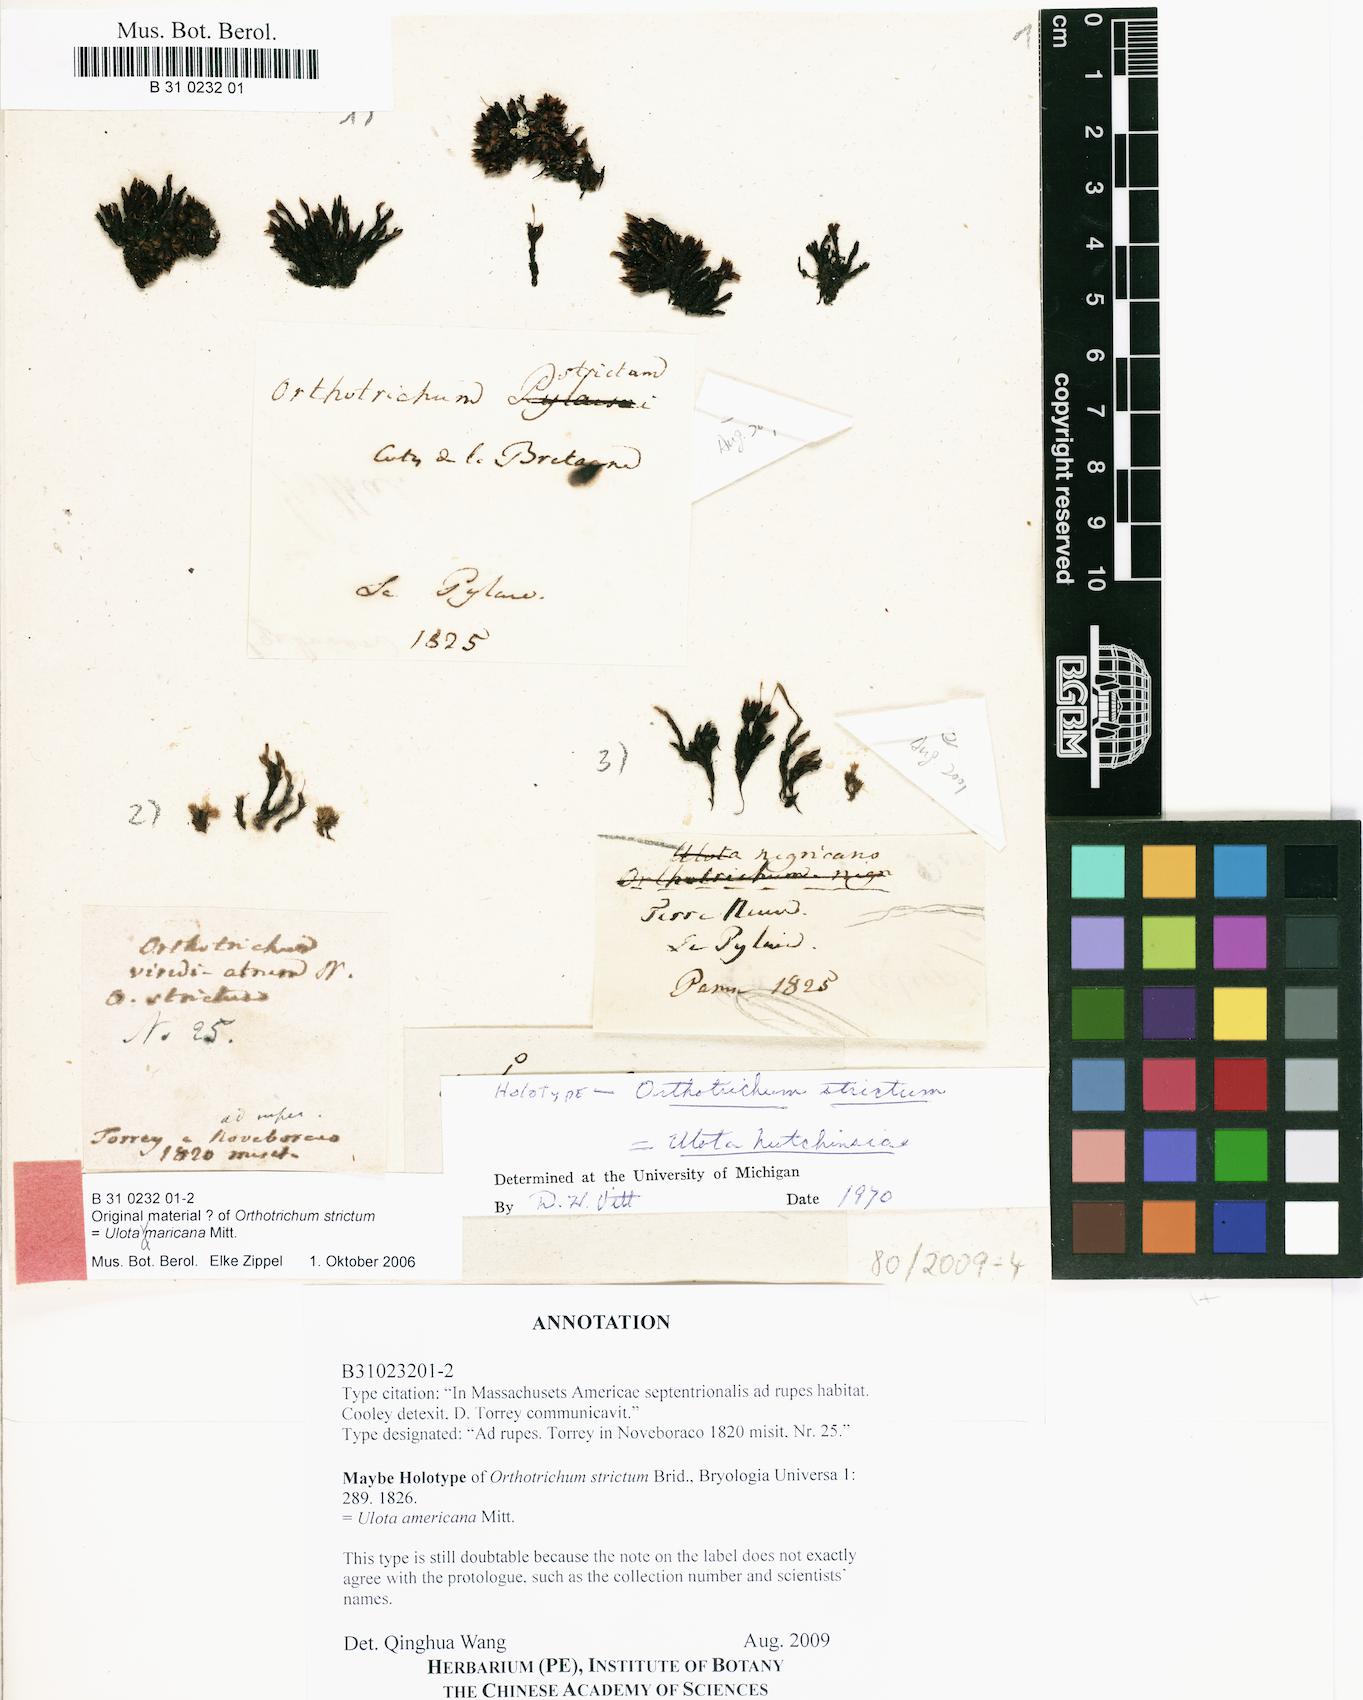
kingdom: Plantae
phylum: Bryophyta
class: Bryopsida
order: Orthotrichales
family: Orthotrichaceae
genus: Ulota
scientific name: Ulota hutchinsiae
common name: Hutchins' pincushion
